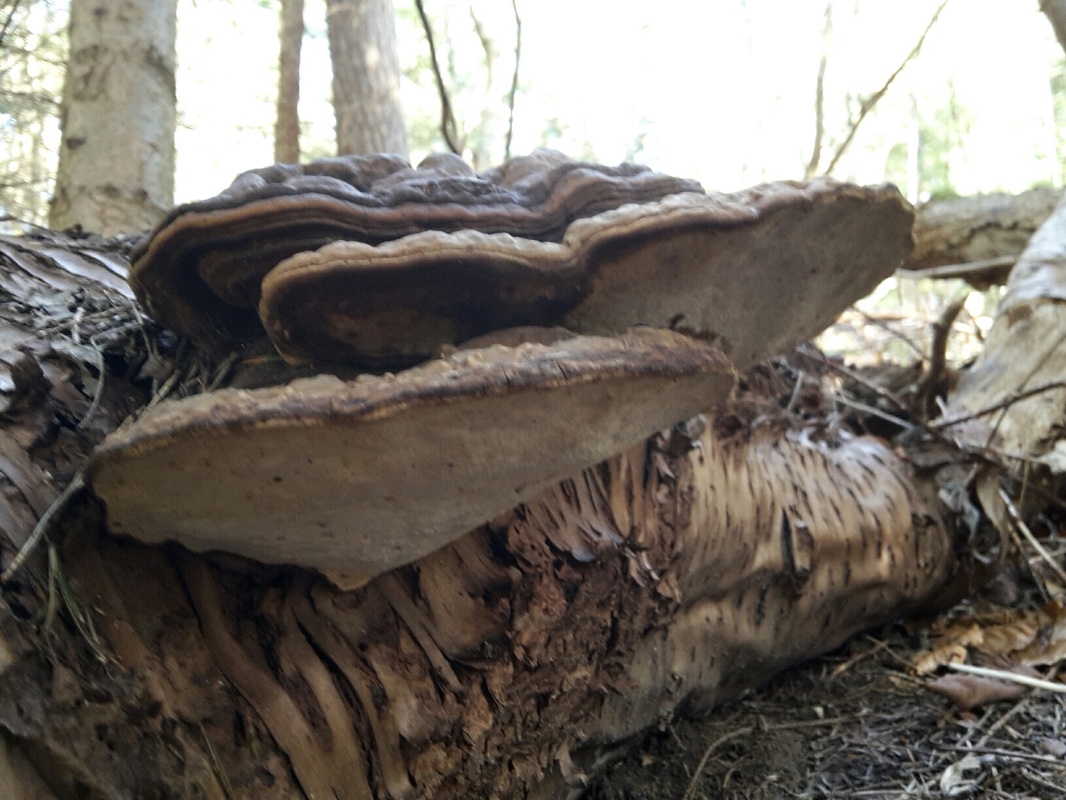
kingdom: Fungi
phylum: Basidiomycota
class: Agaricomycetes
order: Polyporales
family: Polyporaceae
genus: Ganoderma
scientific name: Ganoderma applanatum
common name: flad lakporesvamp
